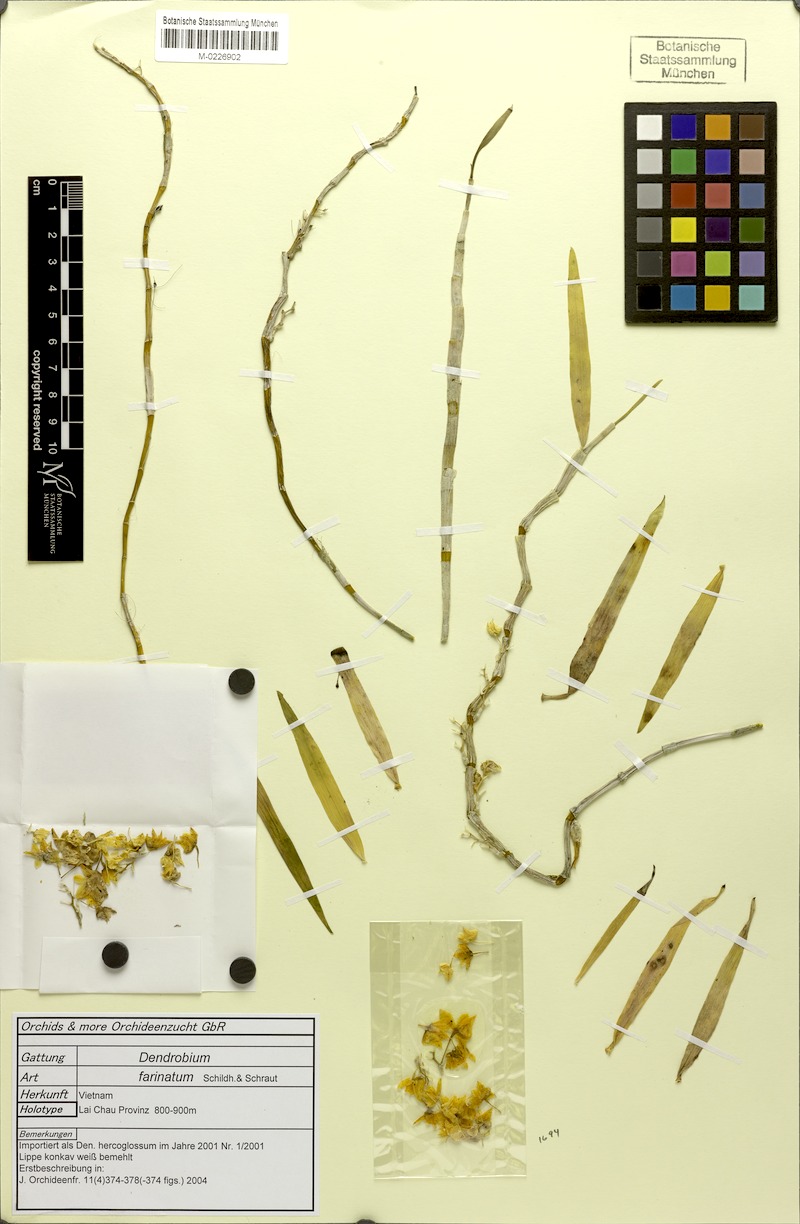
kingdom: Plantae
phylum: Tracheophyta
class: Liliopsida
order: Asparagales
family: Orchidaceae
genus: Dendrobium
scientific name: Dendrobium farinatum
